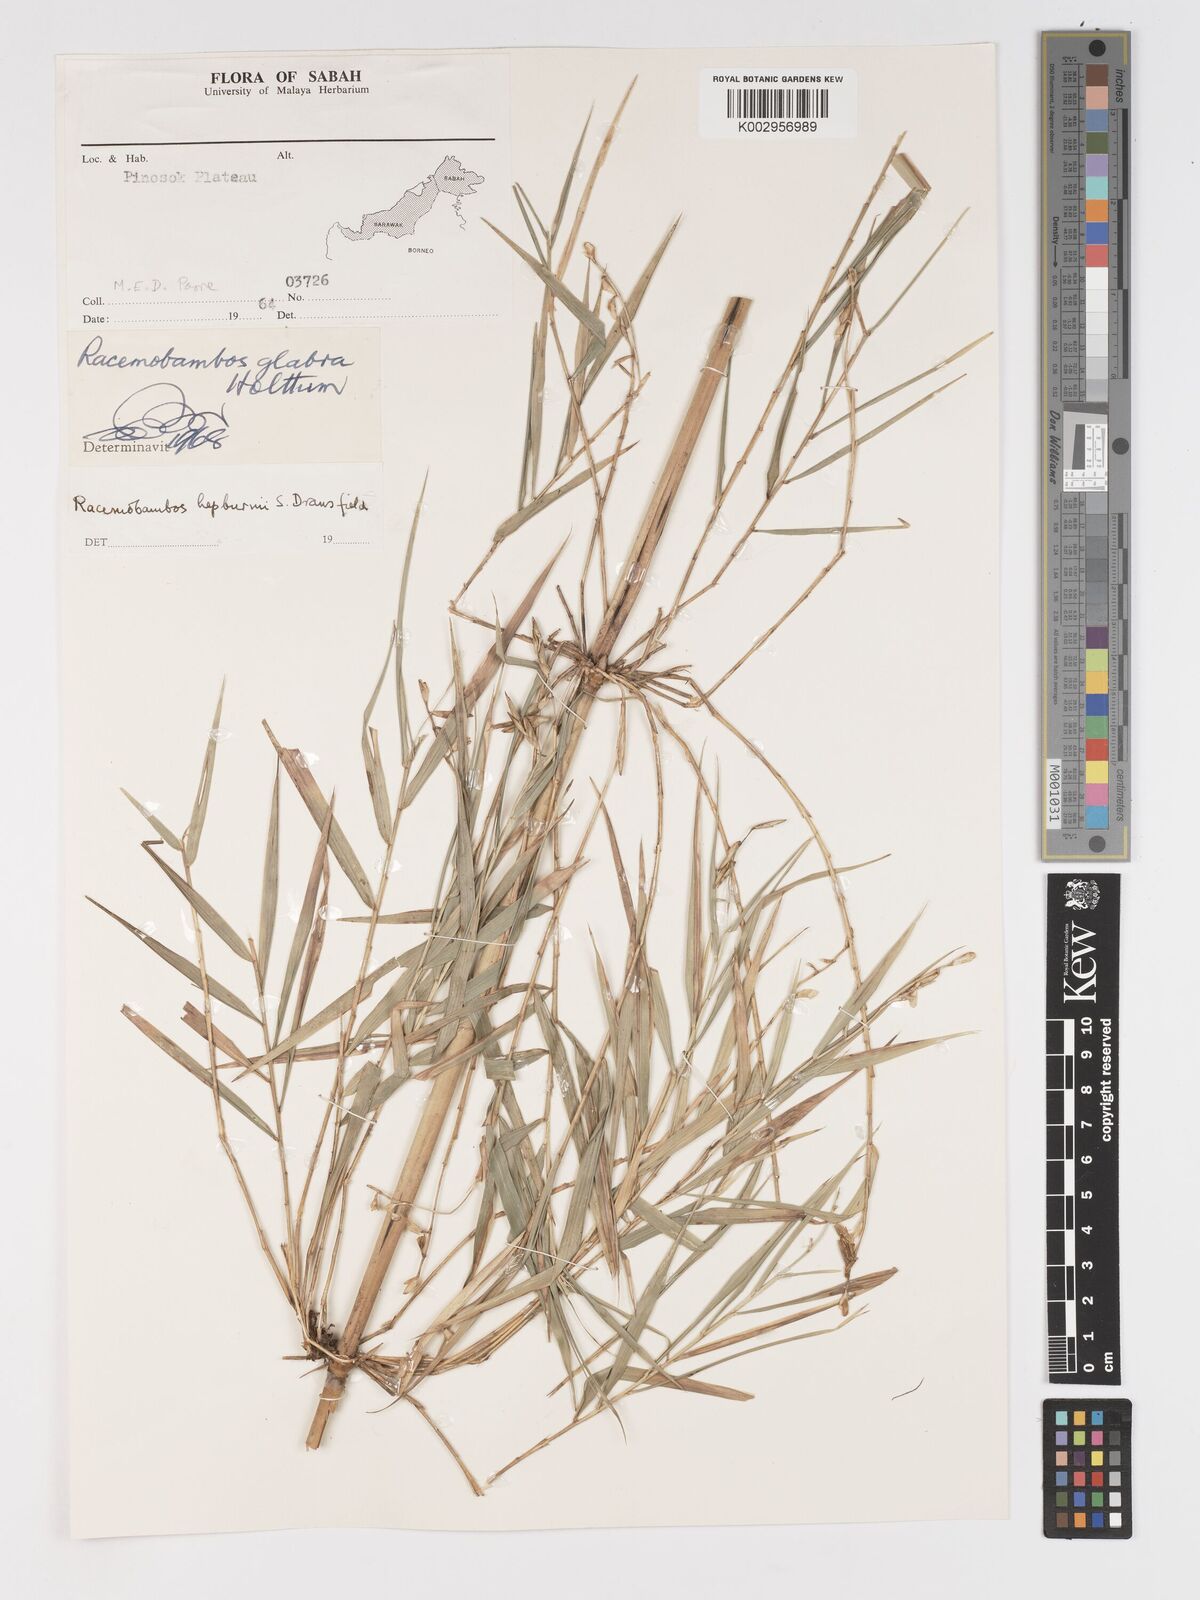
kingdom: Plantae
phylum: Tracheophyta
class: Liliopsida
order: Poales
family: Poaceae
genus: Racemobambos
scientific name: Racemobambos
